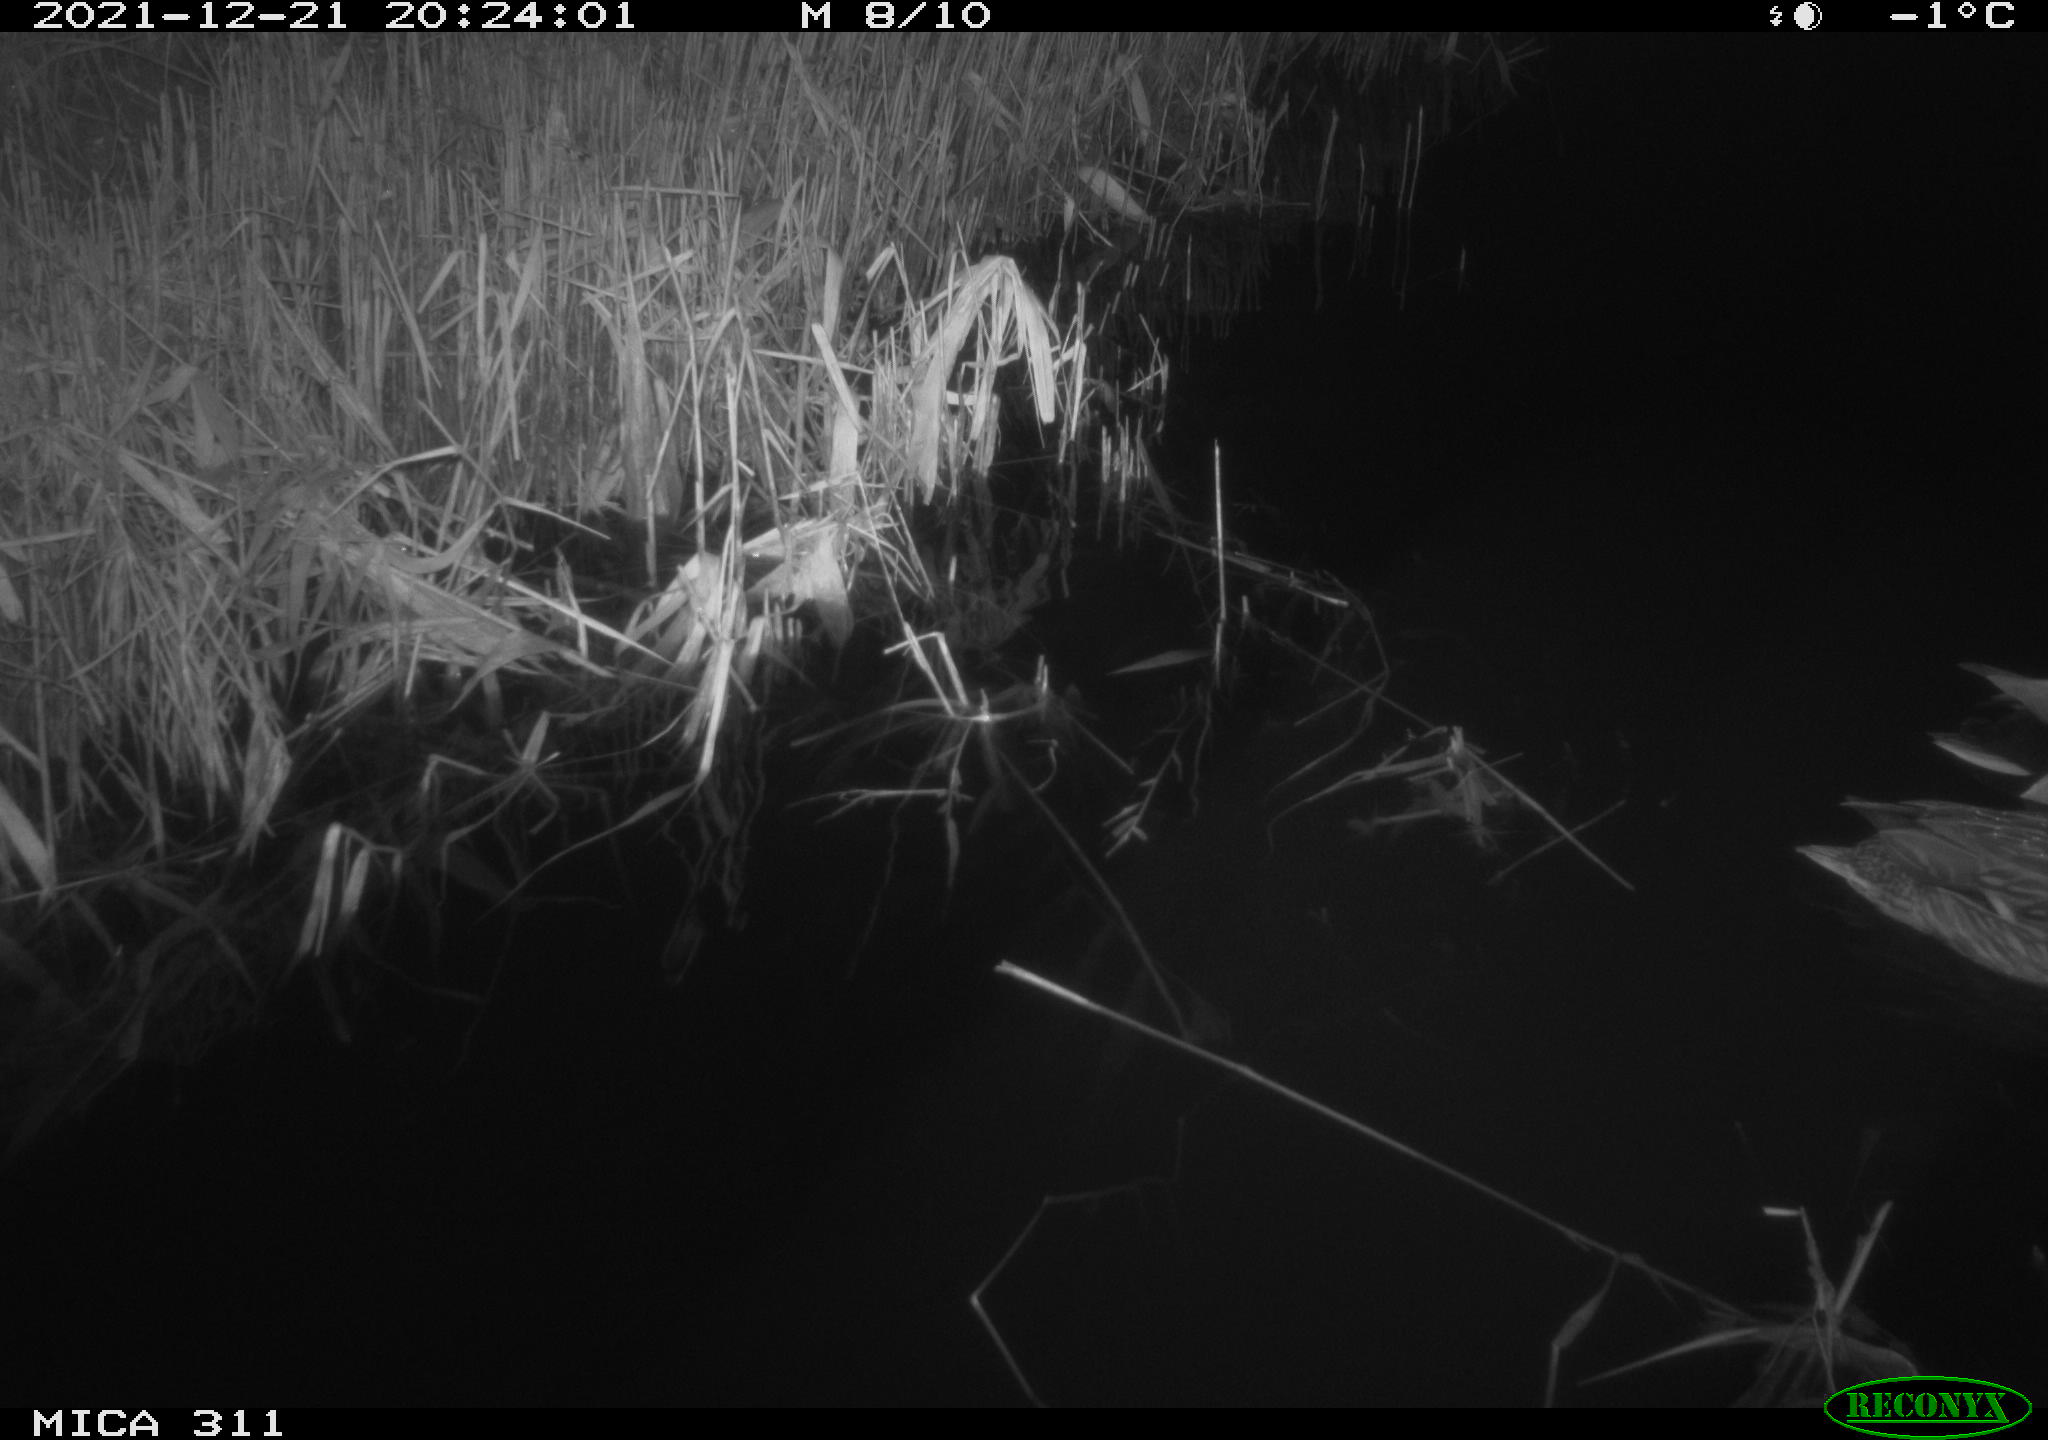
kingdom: Animalia
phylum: Chordata
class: Aves
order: Anseriformes
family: Anatidae
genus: Anas
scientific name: Anas platyrhynchos
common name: Mallard
